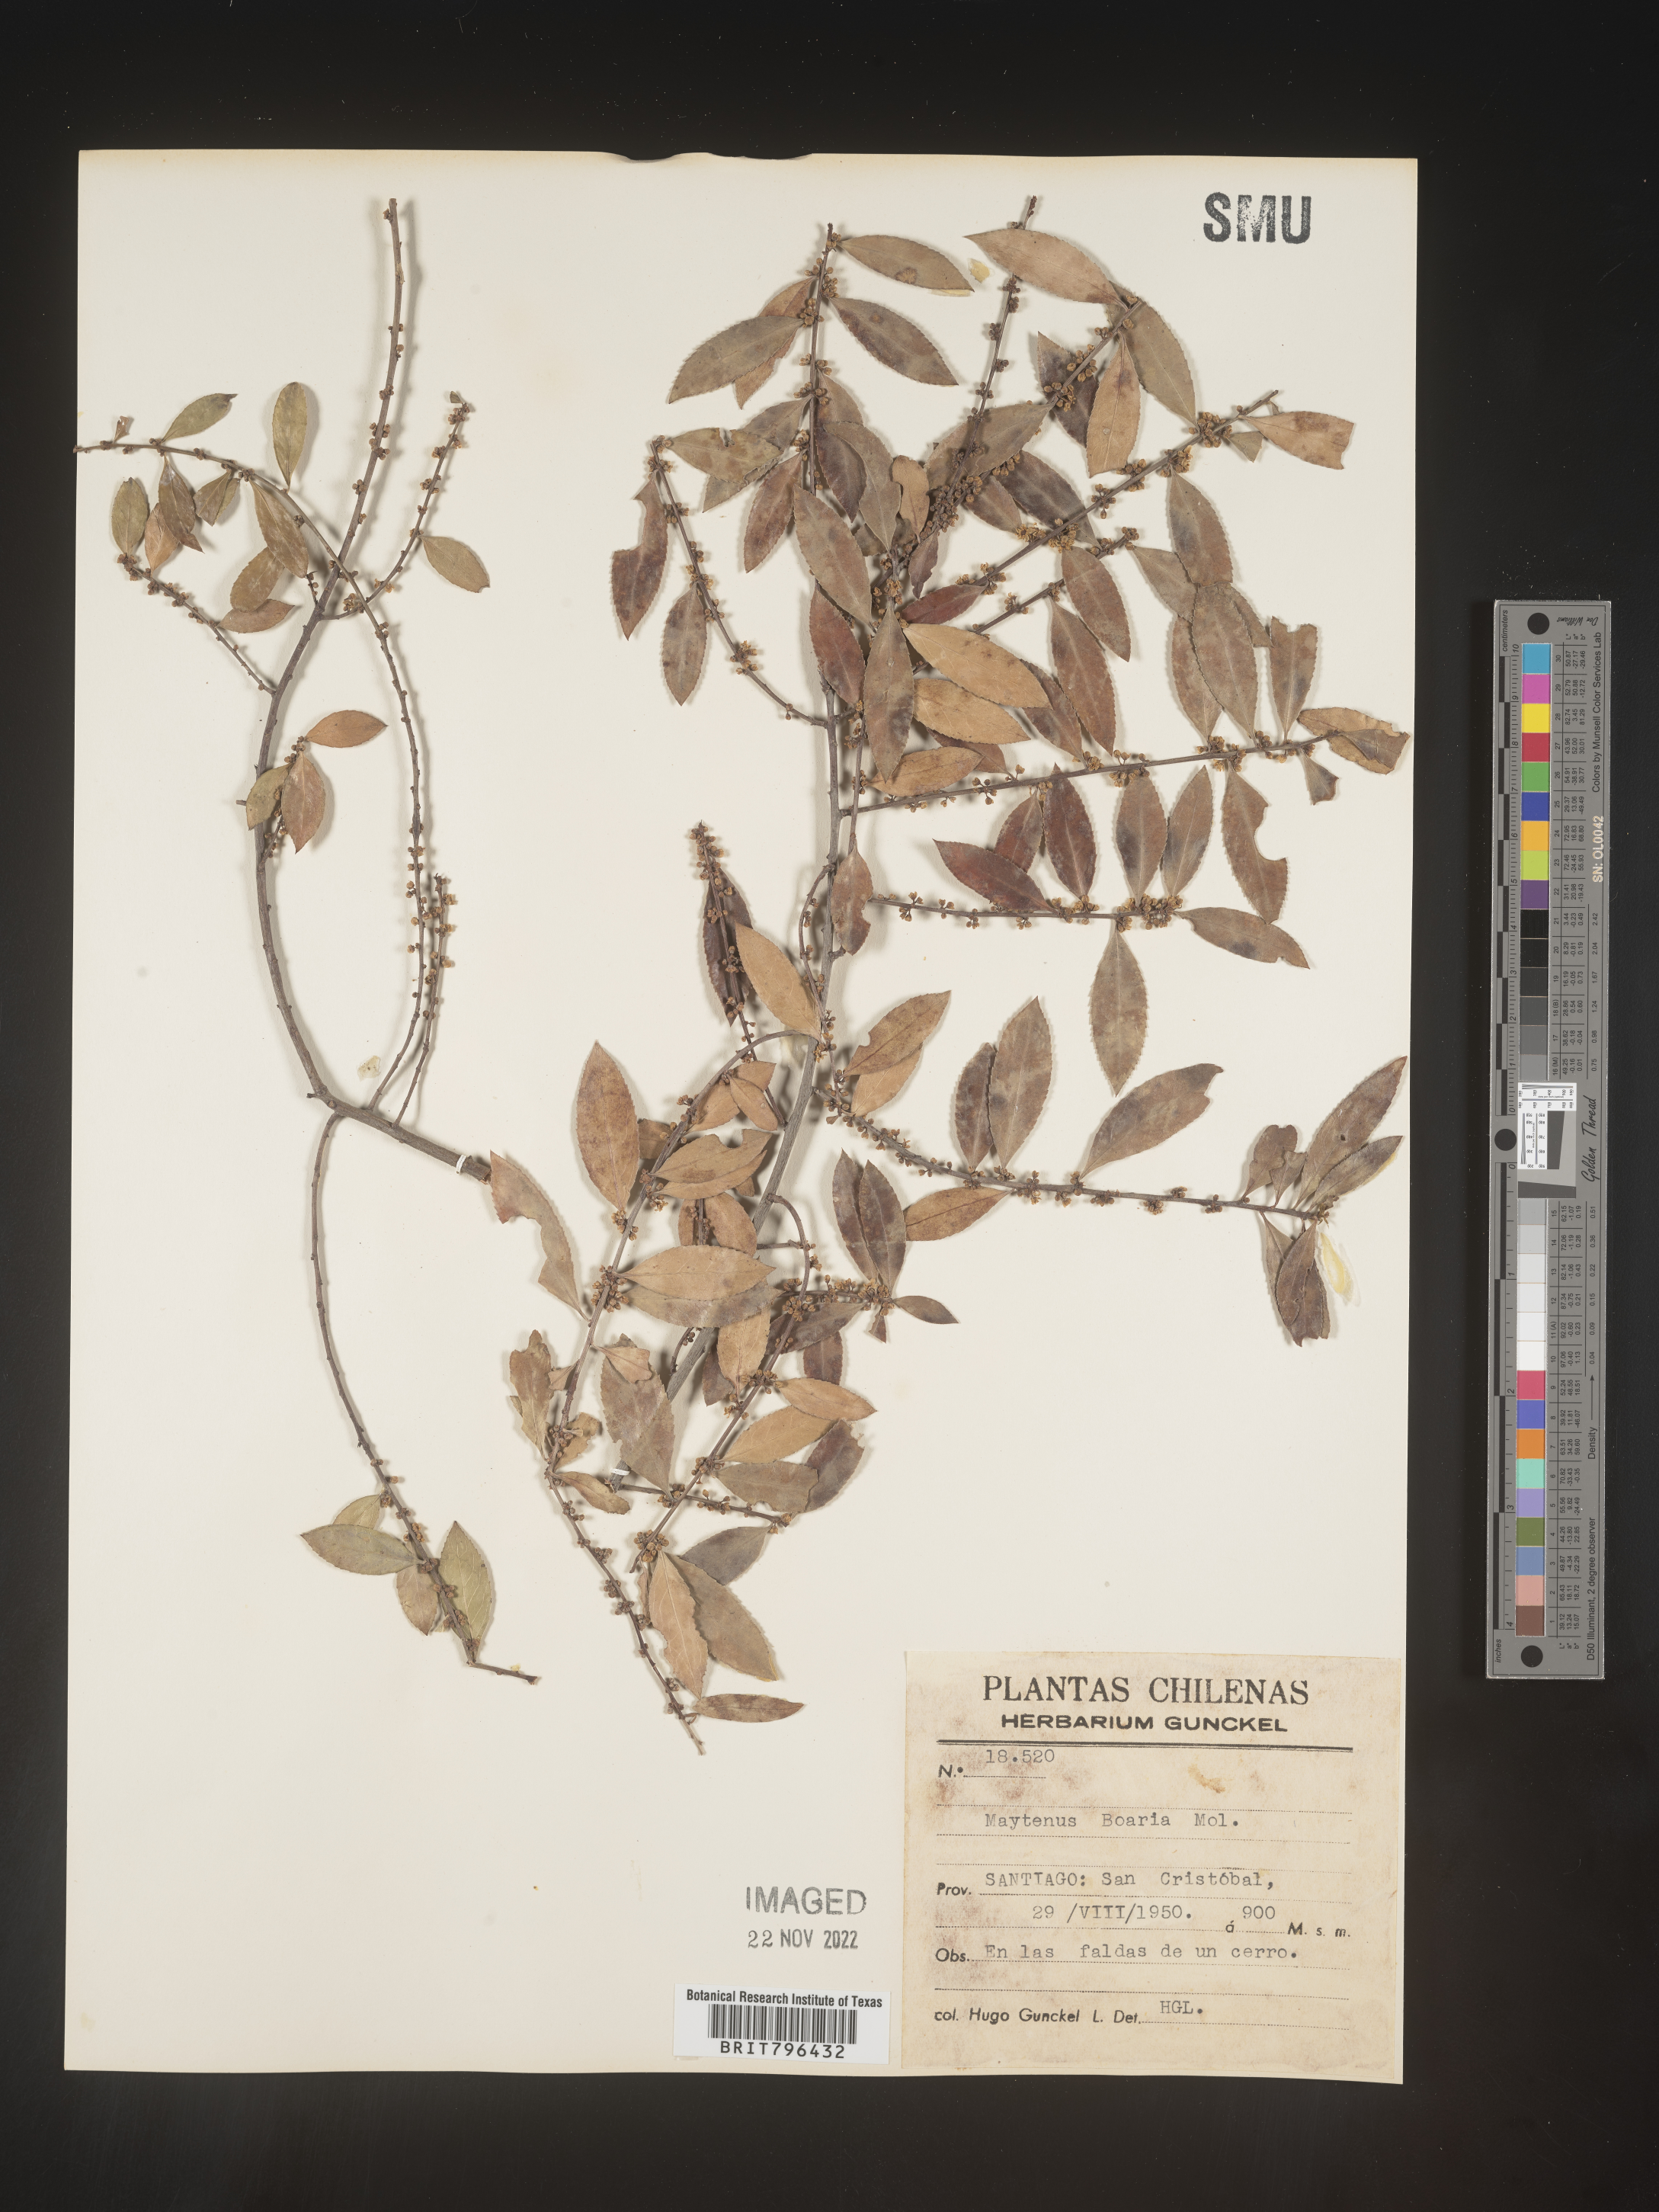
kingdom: Plantae
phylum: Tracheophyta
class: Magnoliopsida
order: Celastrales
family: Celastraceae
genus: Maytenus
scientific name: Maytenus
